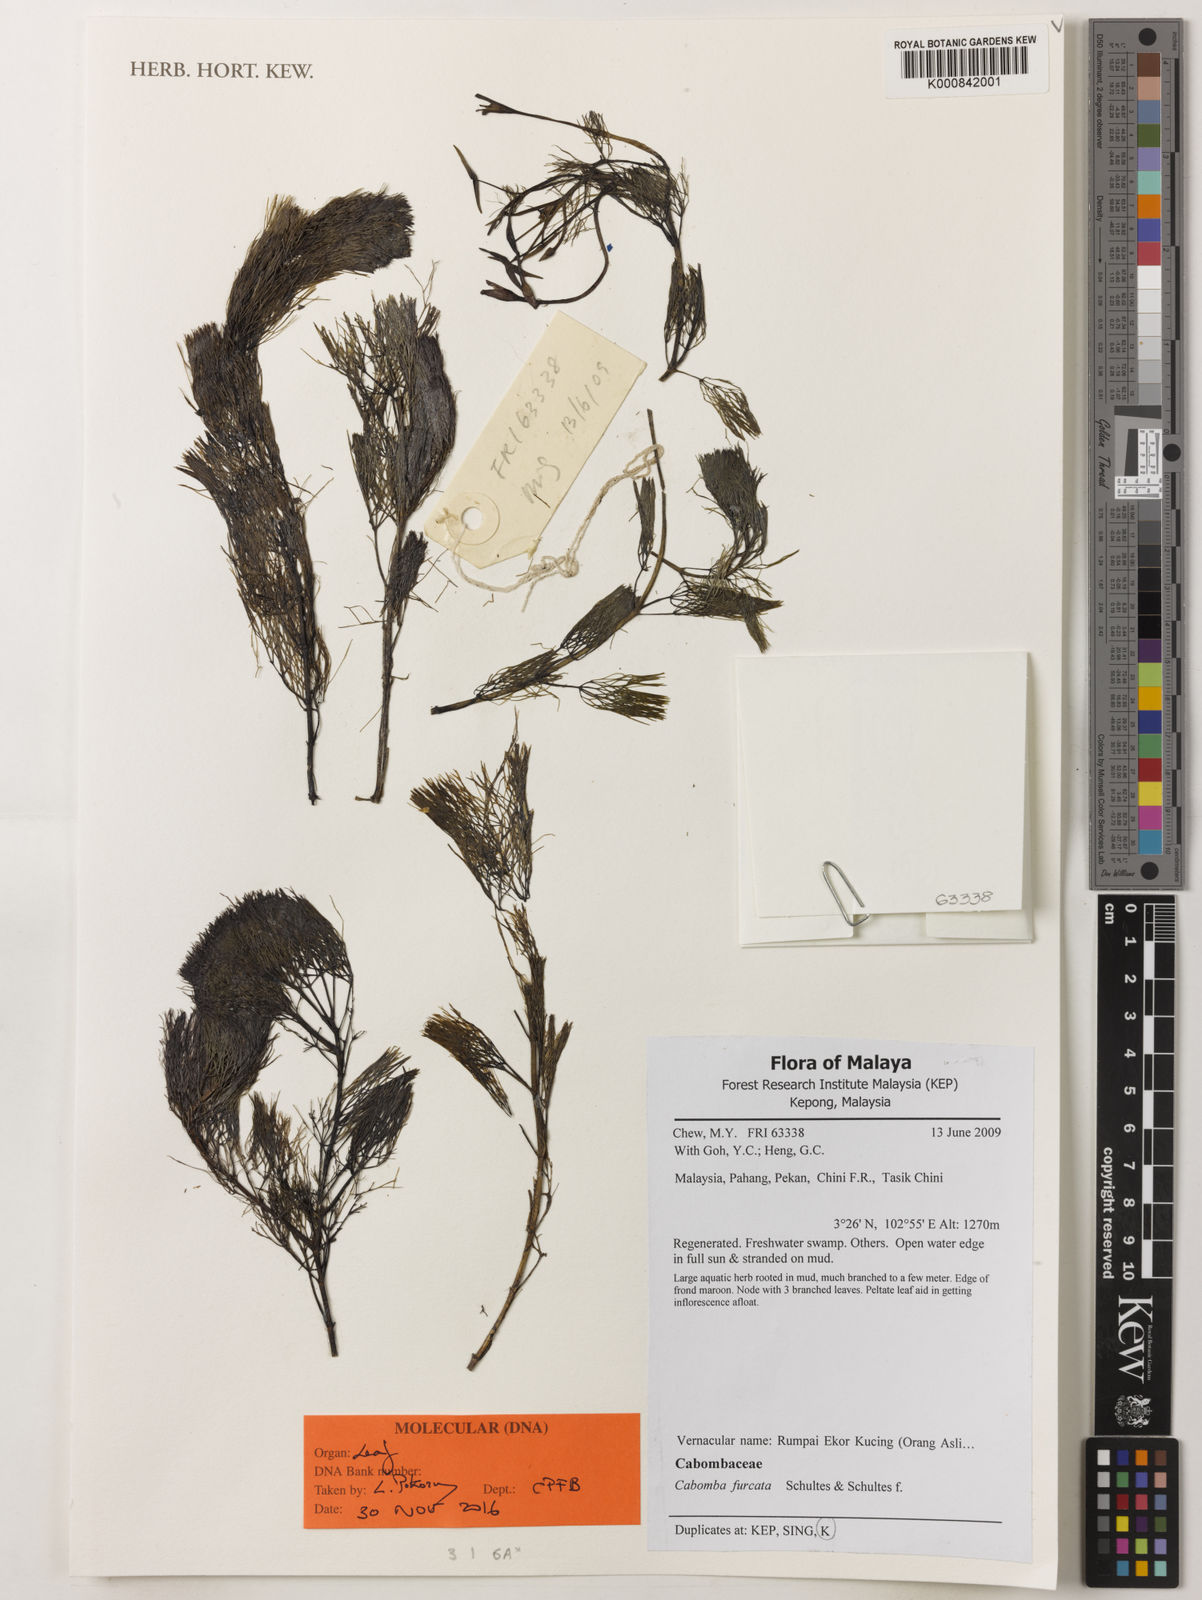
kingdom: Plantae
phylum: Tracheophyta
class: Magnoliopsida
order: Nymphaeales
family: Cabombaceae
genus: Cabomba
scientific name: Cabomba furcata
